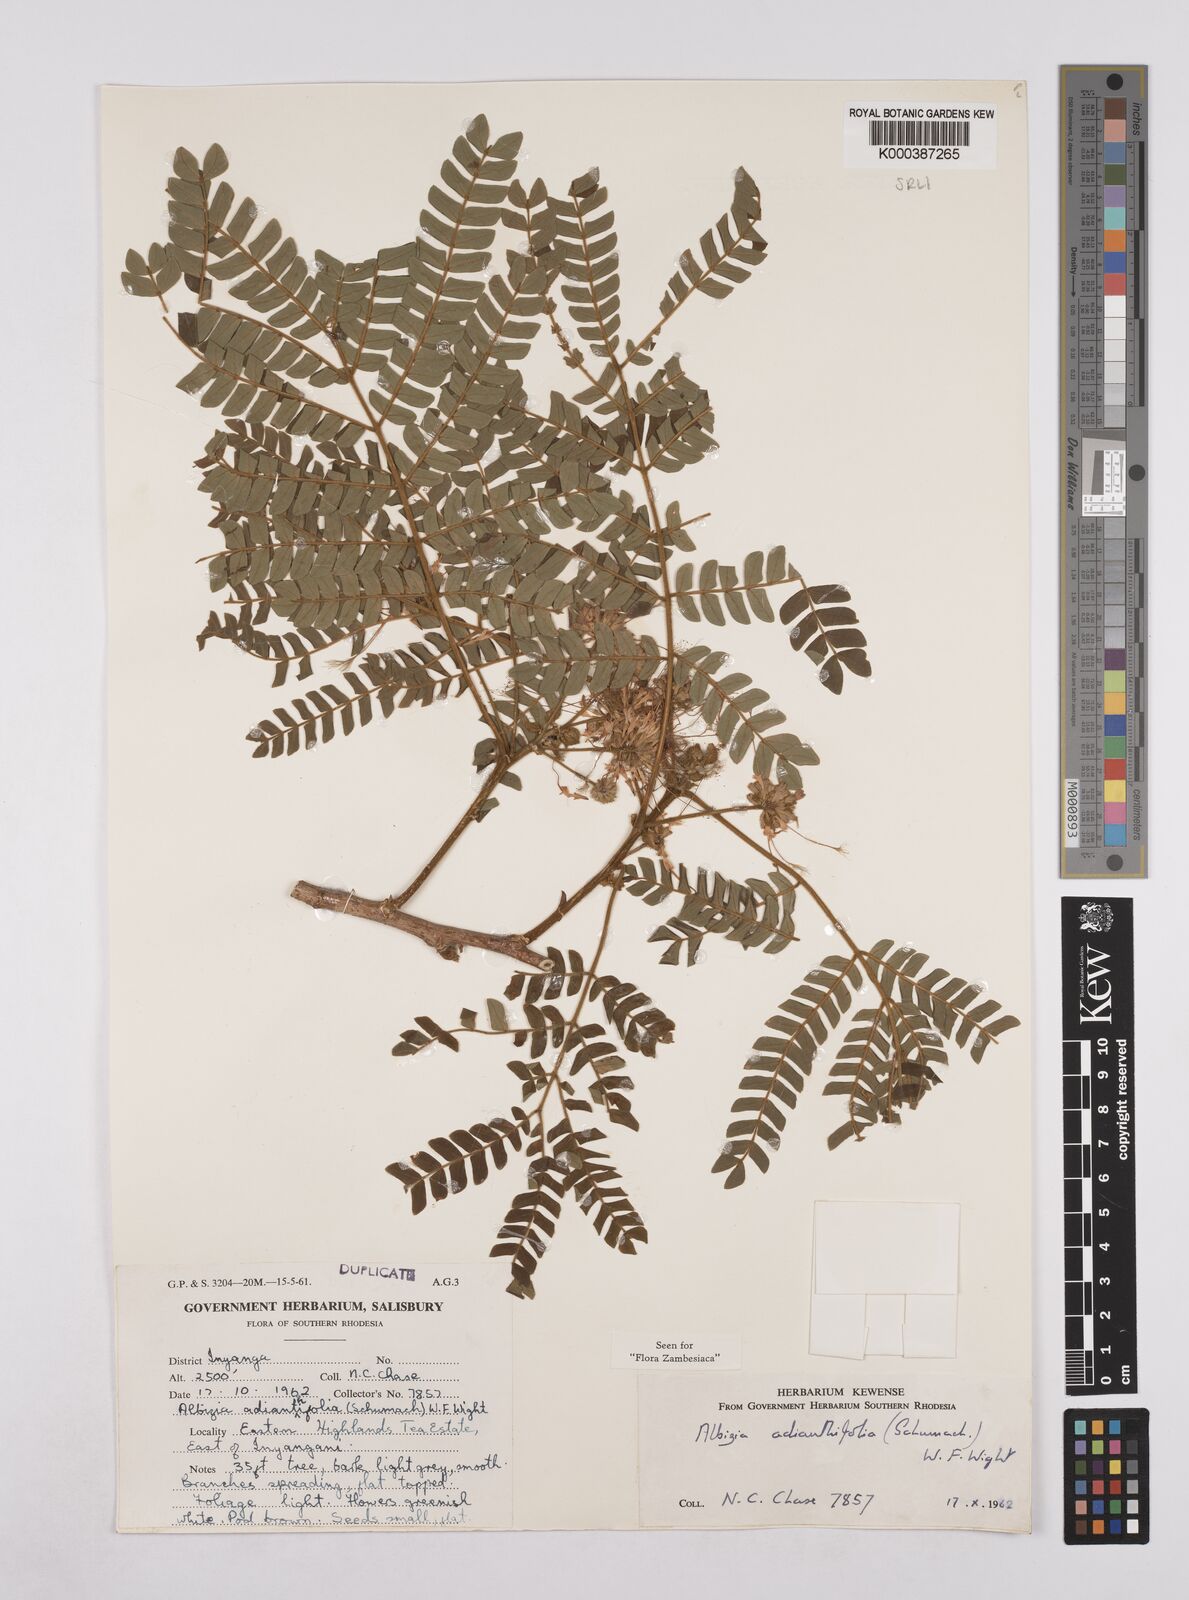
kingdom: Plantae
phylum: Tracheophyta
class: Magnoliopsida
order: Fabales
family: Fabaceae
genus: Albizia
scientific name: Albizia adianthifolia
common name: West african albizia
